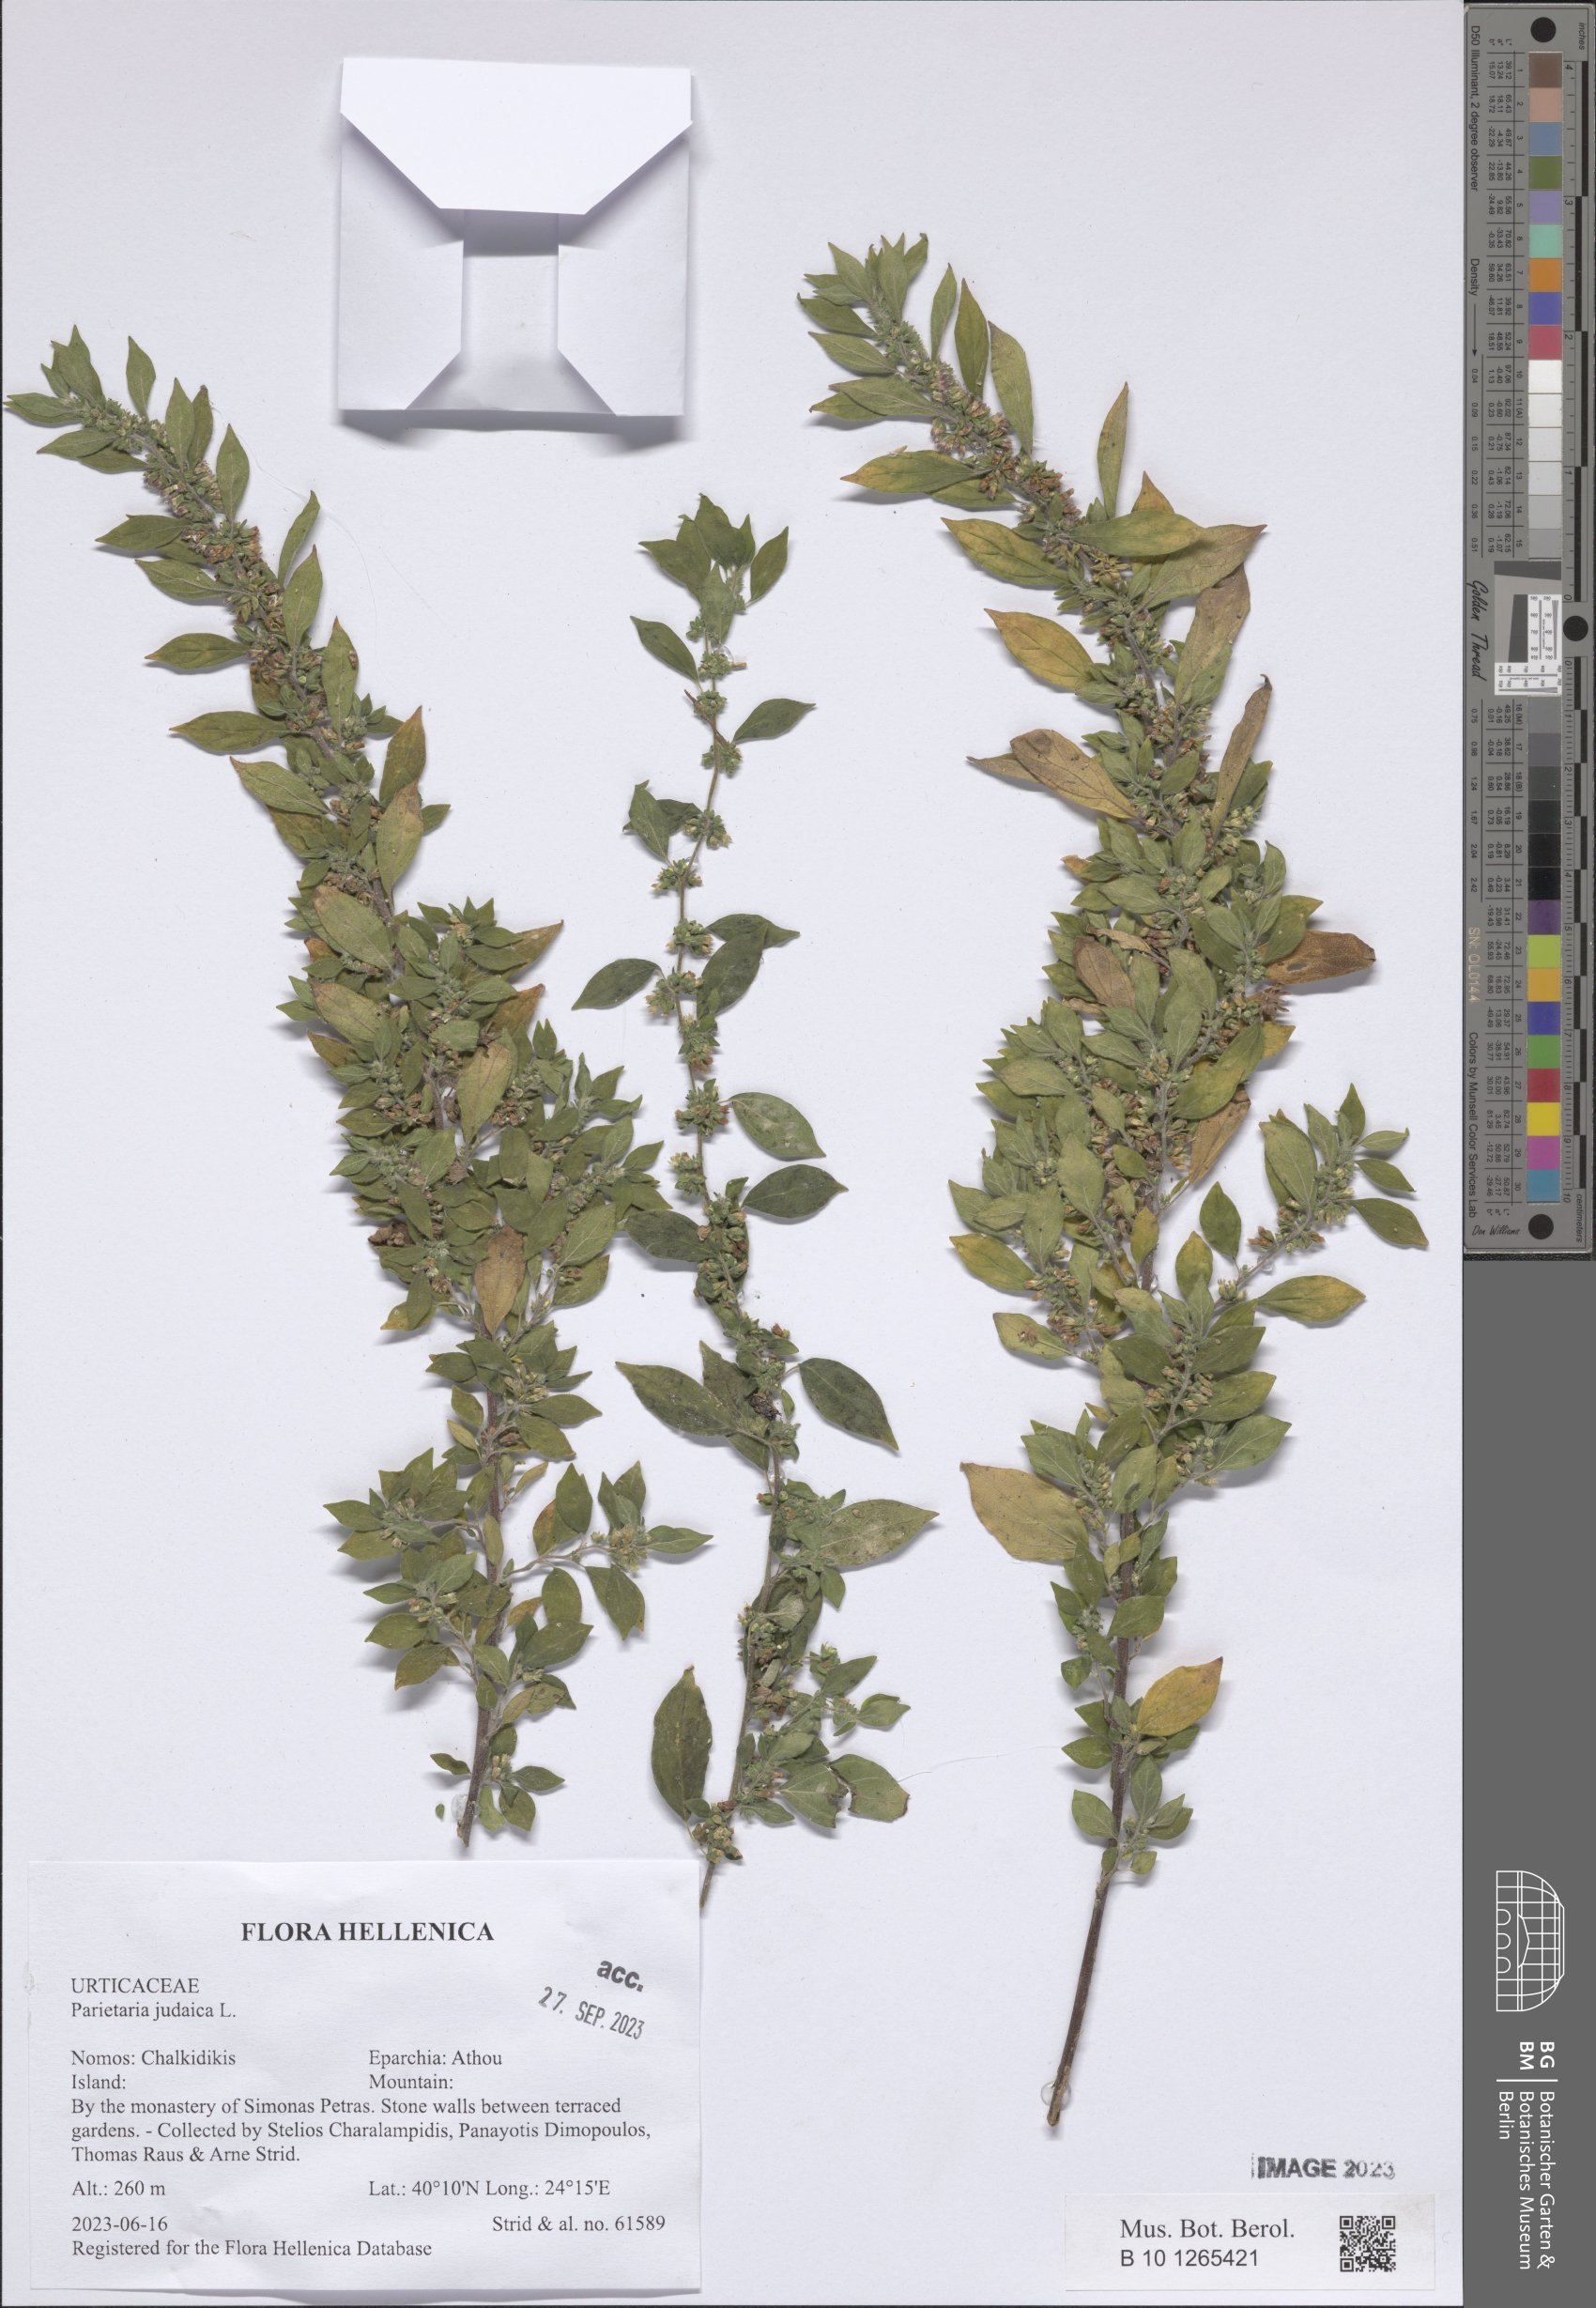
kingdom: Plantae
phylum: Tracheophyta
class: Magnoliopsida
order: Rosales
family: Urticaceae
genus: Parietaria
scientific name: Parietaria judaica
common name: Pellitory-of-the-wall
